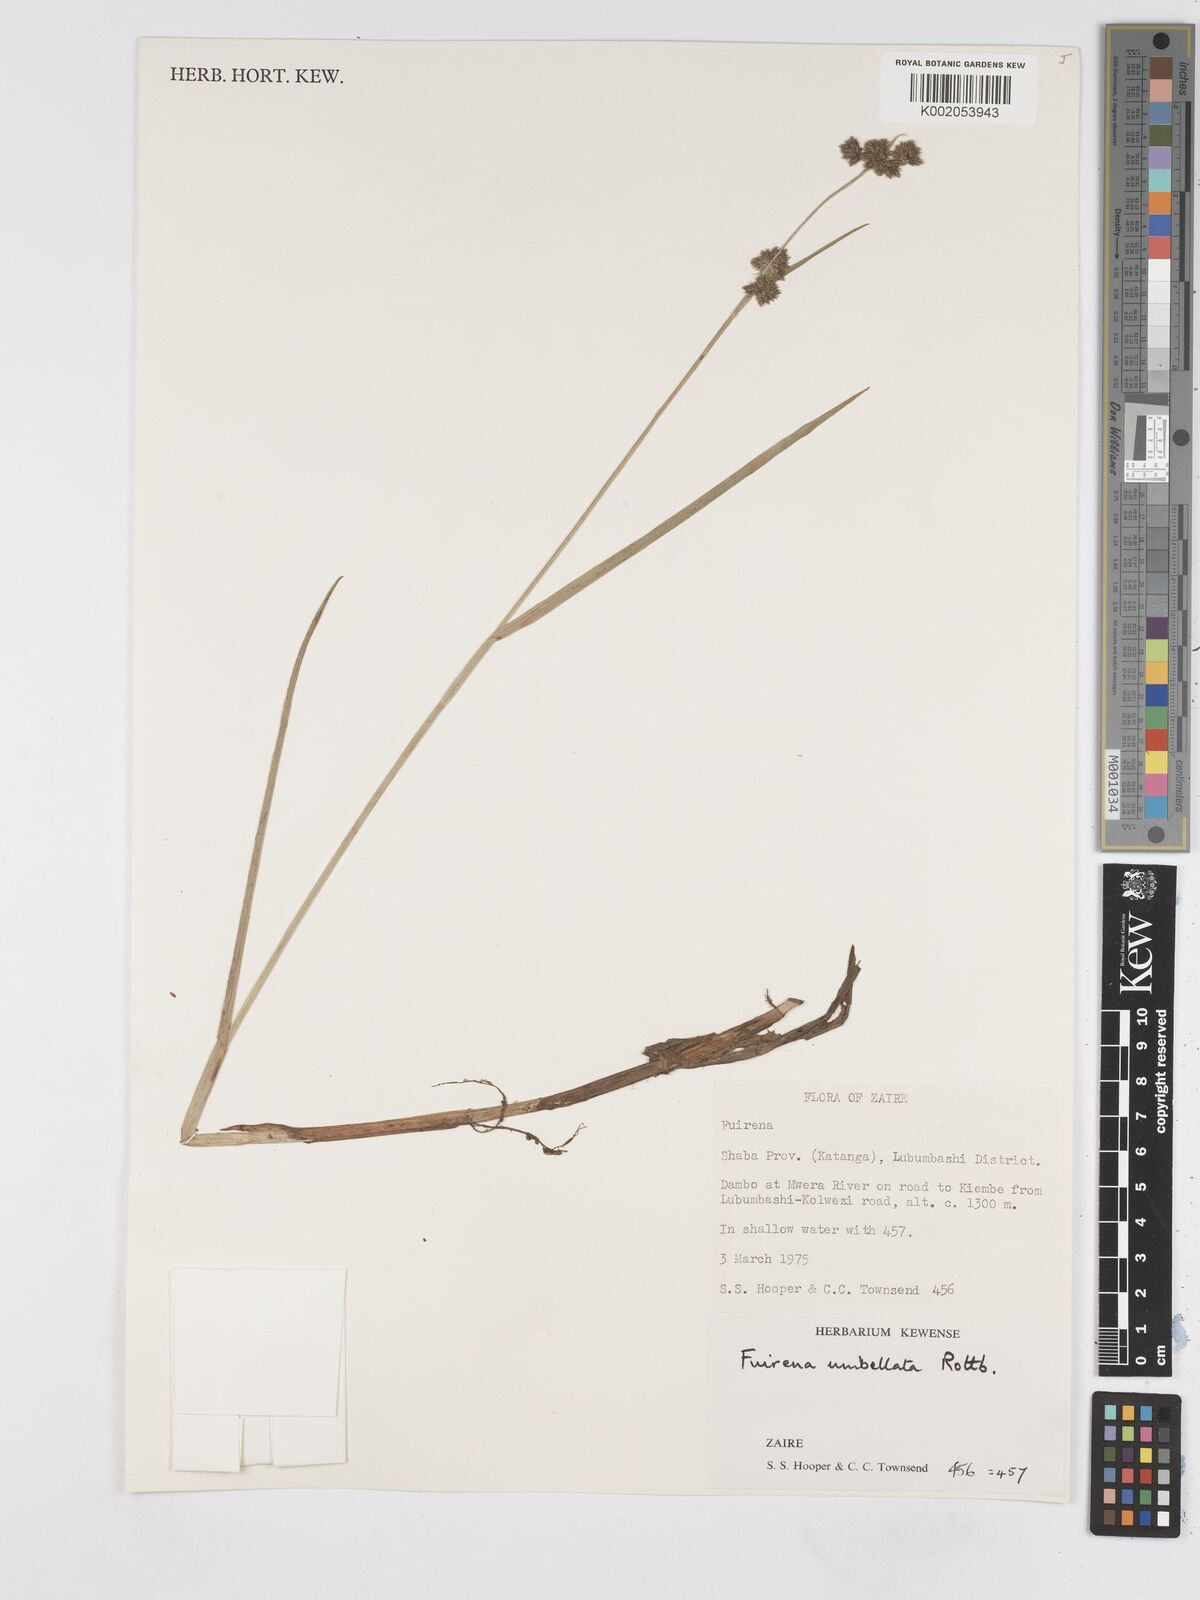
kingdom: Plantae
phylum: Tracheophyta
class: Liliopsida
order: Poales
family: Cyperaceae
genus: Fuirena
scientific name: Fuirena umbellata
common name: Yefen
